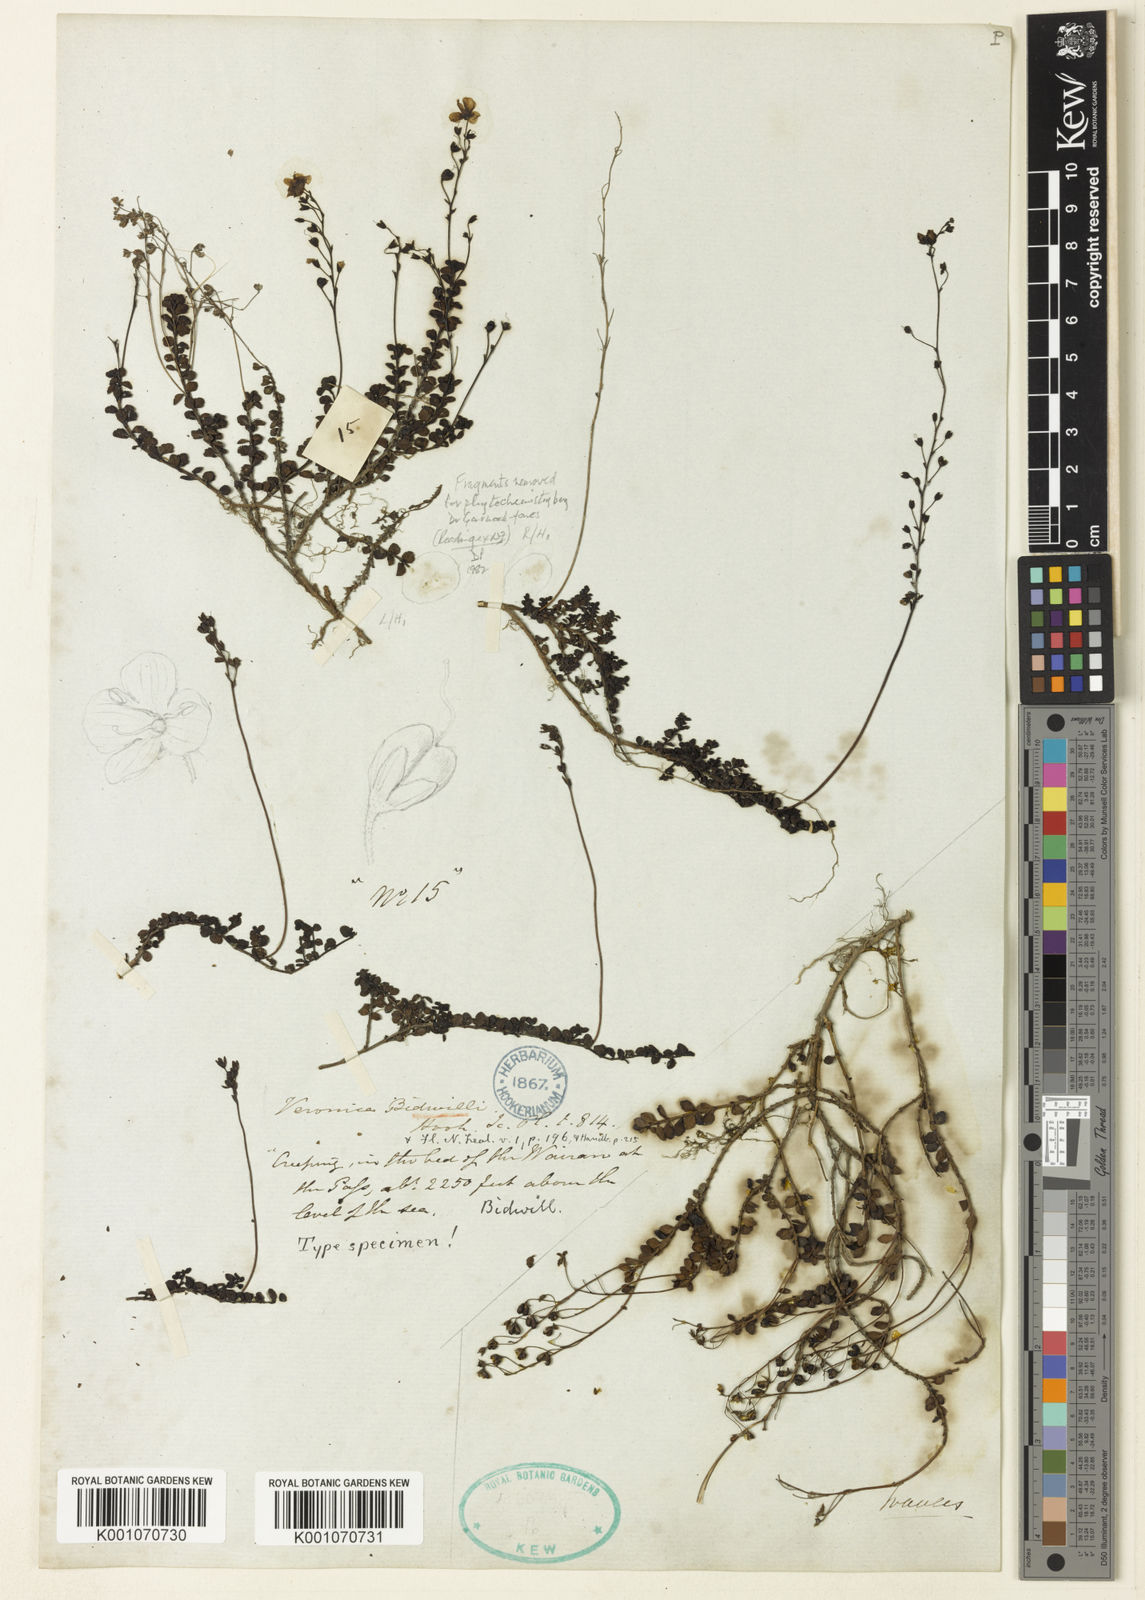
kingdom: Plantae
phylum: Tracheophyta
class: Magnoliopsida
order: Lamiales
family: Plantaginaceae
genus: Veronica
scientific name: Veronica bidwillii
